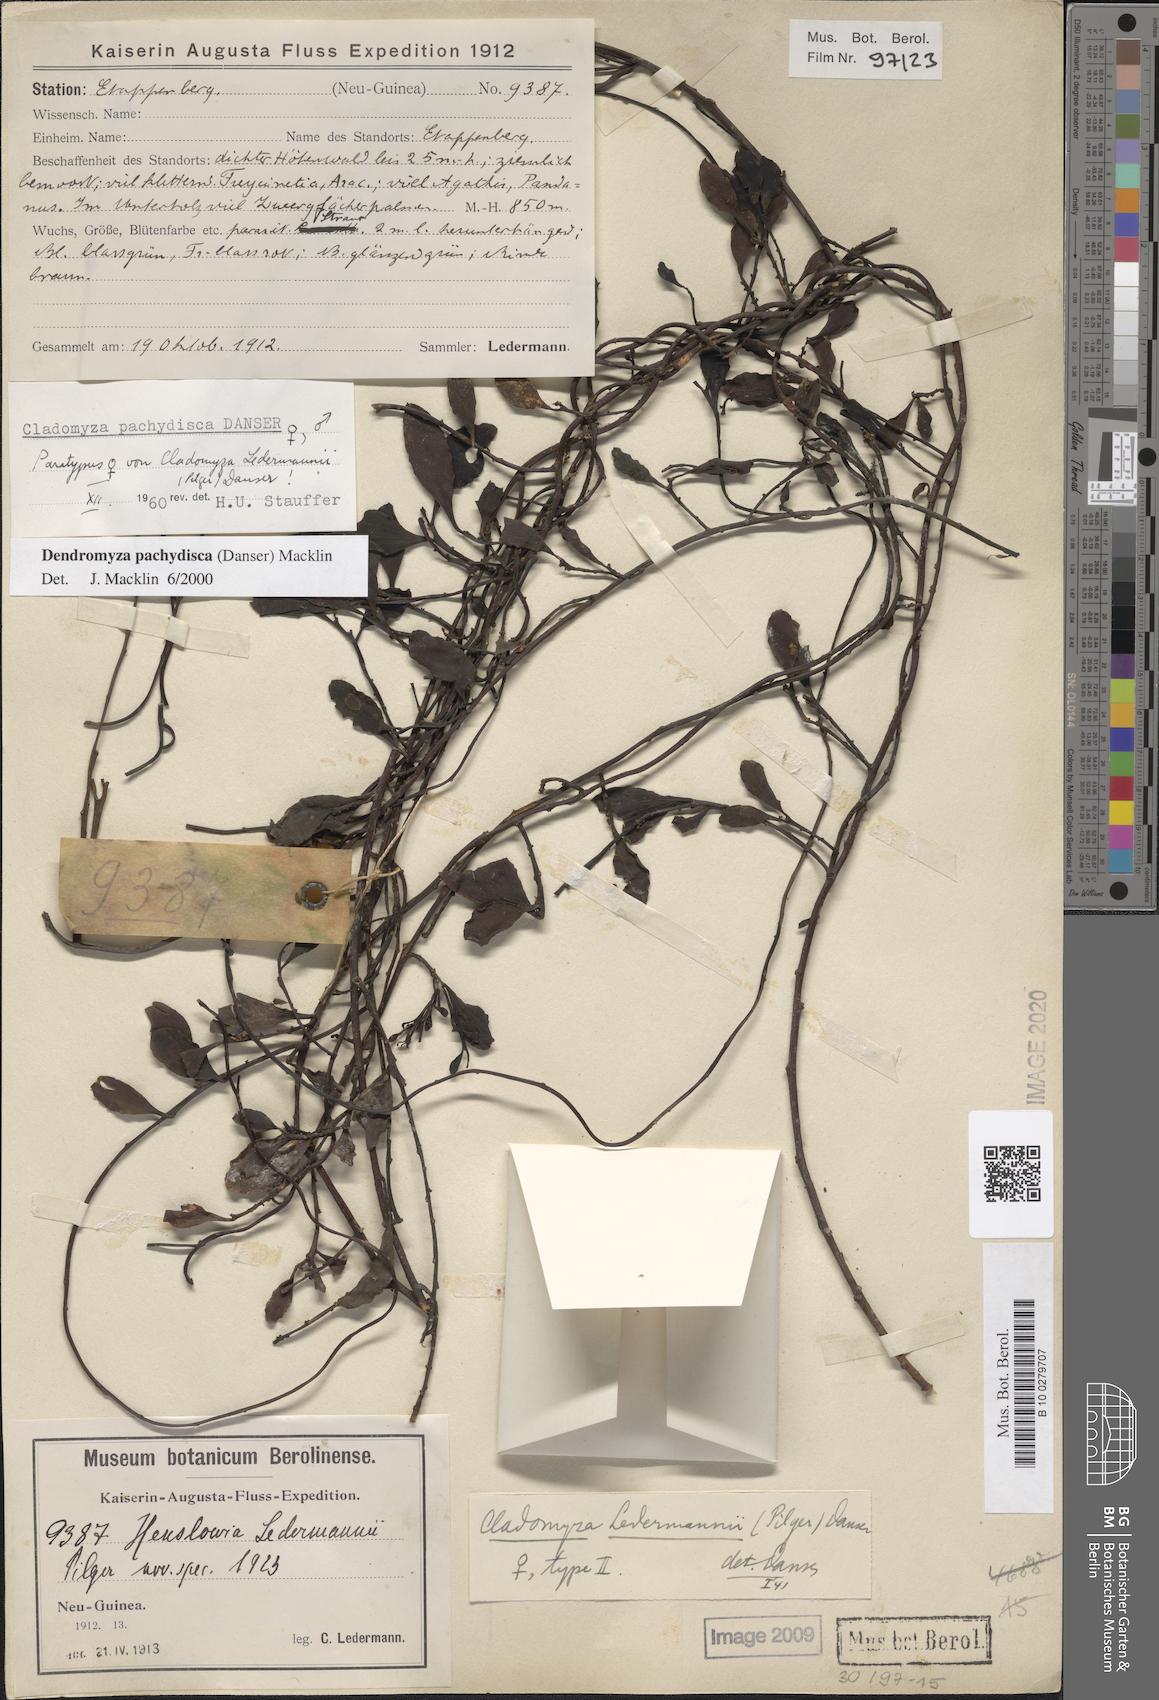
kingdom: Plantae
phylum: Tracheophyta
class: Magnoliopsida
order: Santalales
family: Amphorogynaceae
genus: Dendromyza
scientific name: Dendromyza pachydisca
